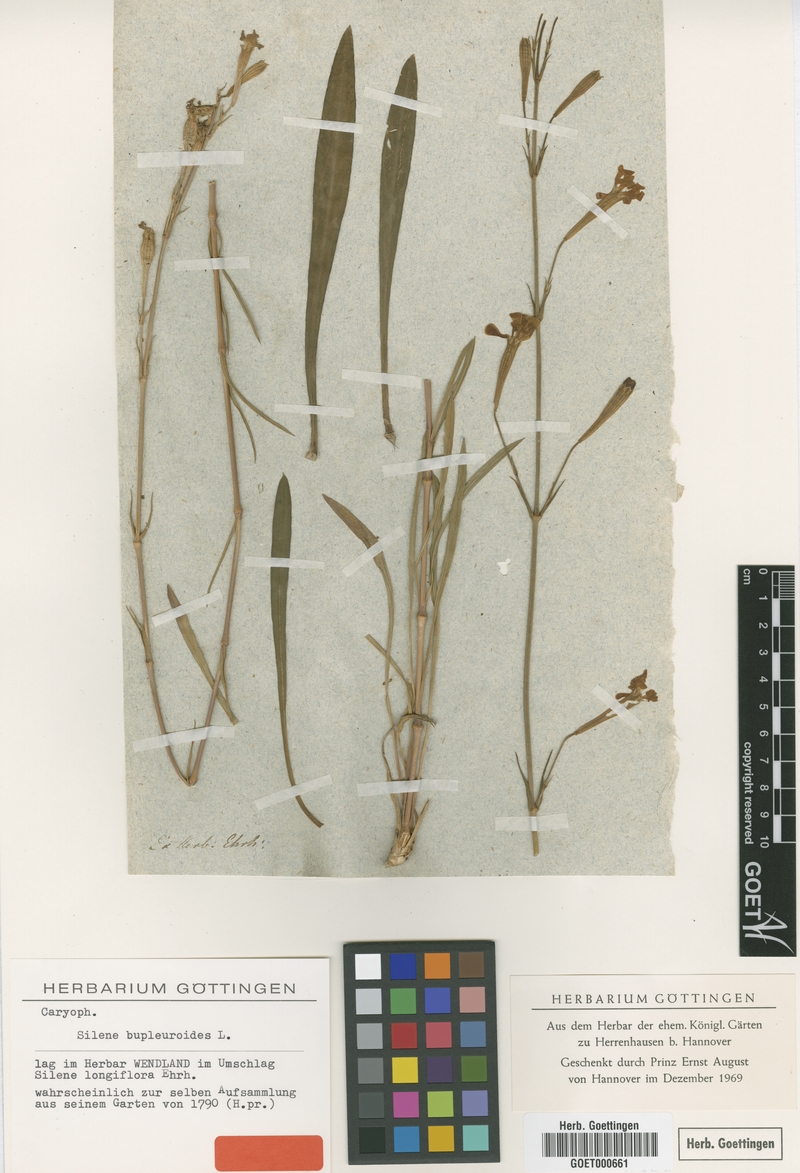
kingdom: Plantae
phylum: Tracheophyta
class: Magnoliopsida
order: Caryophyllales
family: Caryophyllaceae
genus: Silene
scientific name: Silene bupleuroides
